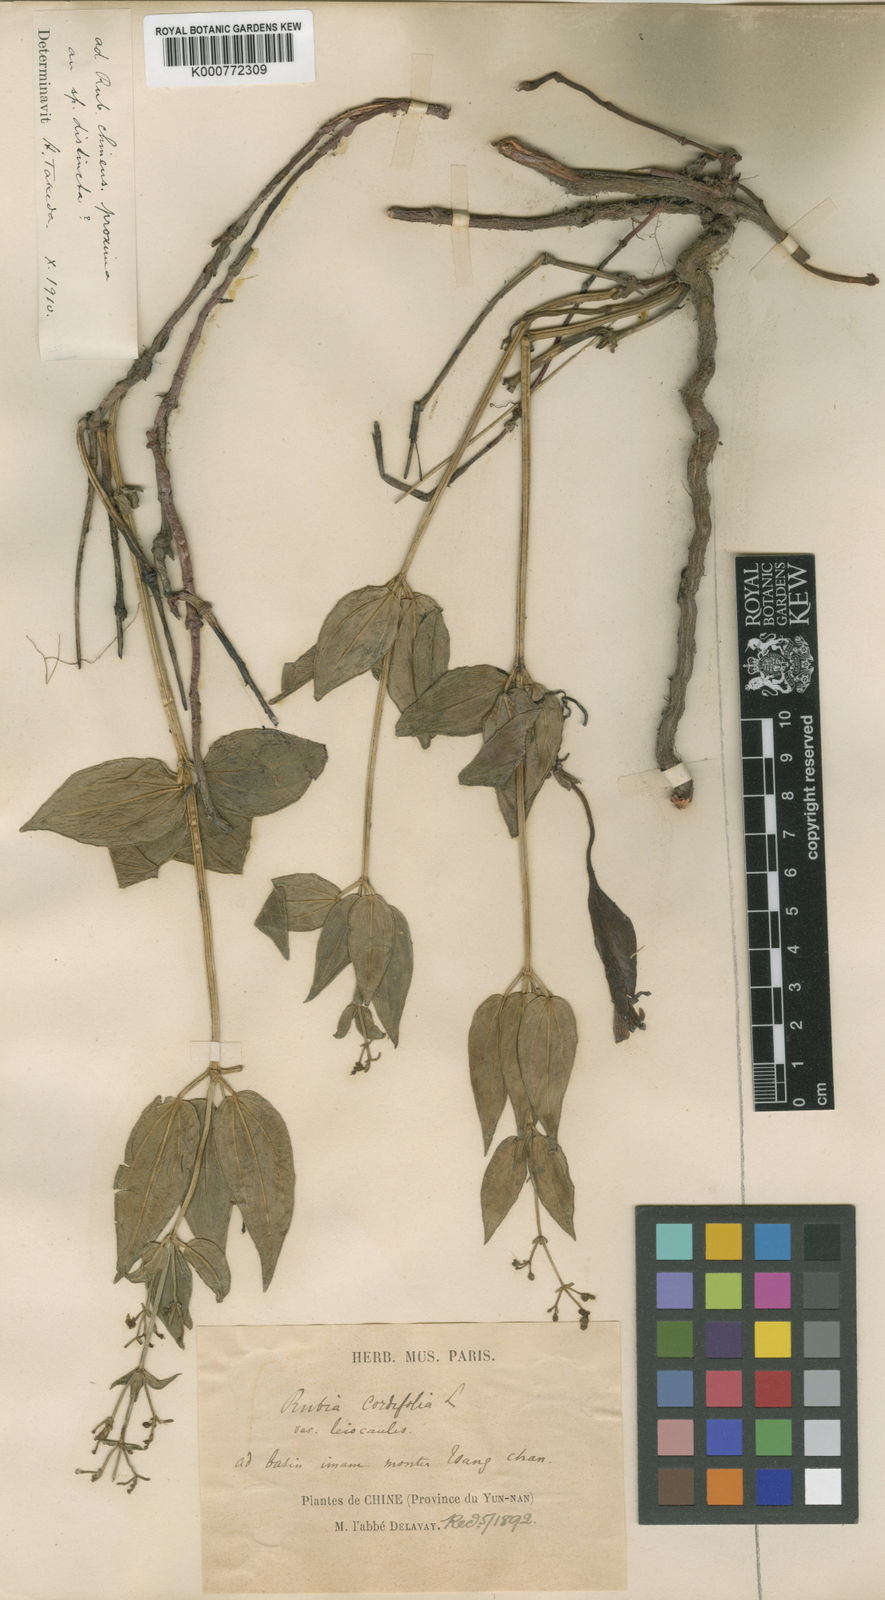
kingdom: Plantae
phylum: Tracheophyta
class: Magnoliopsida
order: Gentianales
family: Rubiaceae
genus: Rubia
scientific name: Rubia schumanniana
